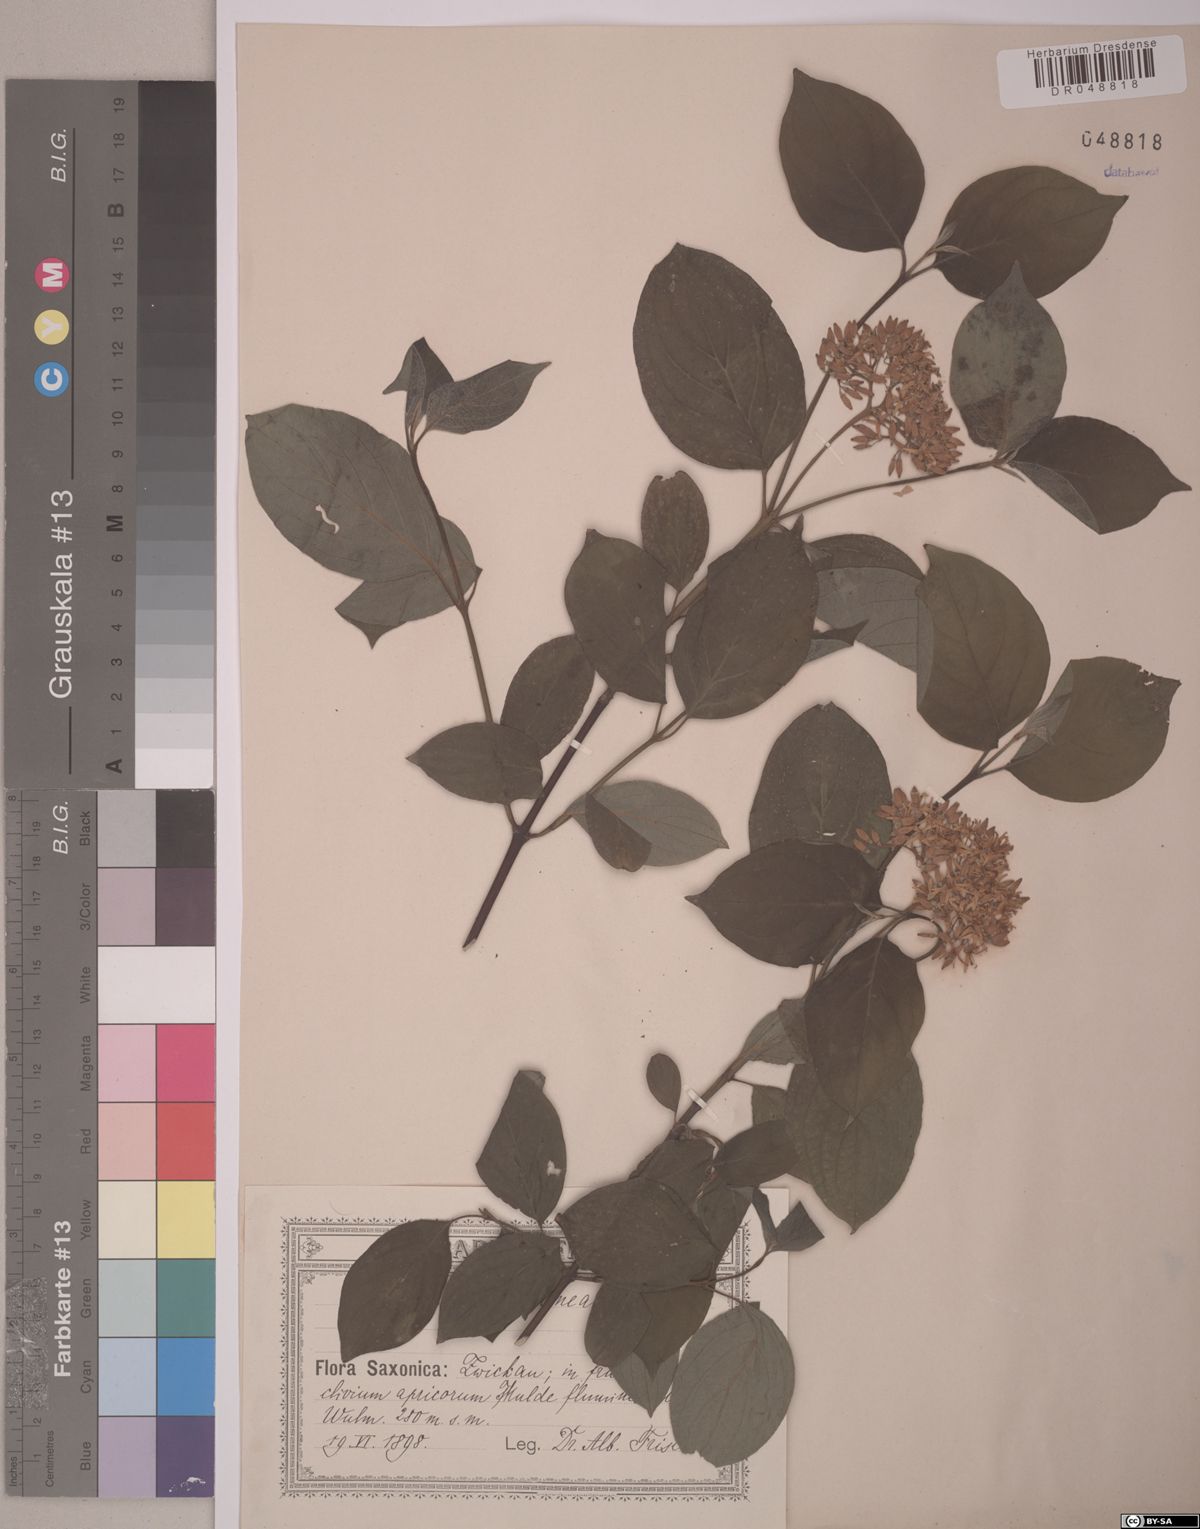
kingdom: Plantae
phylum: Tracheophyta
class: Magnoliopsida
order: Cornales
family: Cornaceae
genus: Cornus
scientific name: Cornus sanguinea
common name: Dogwood
